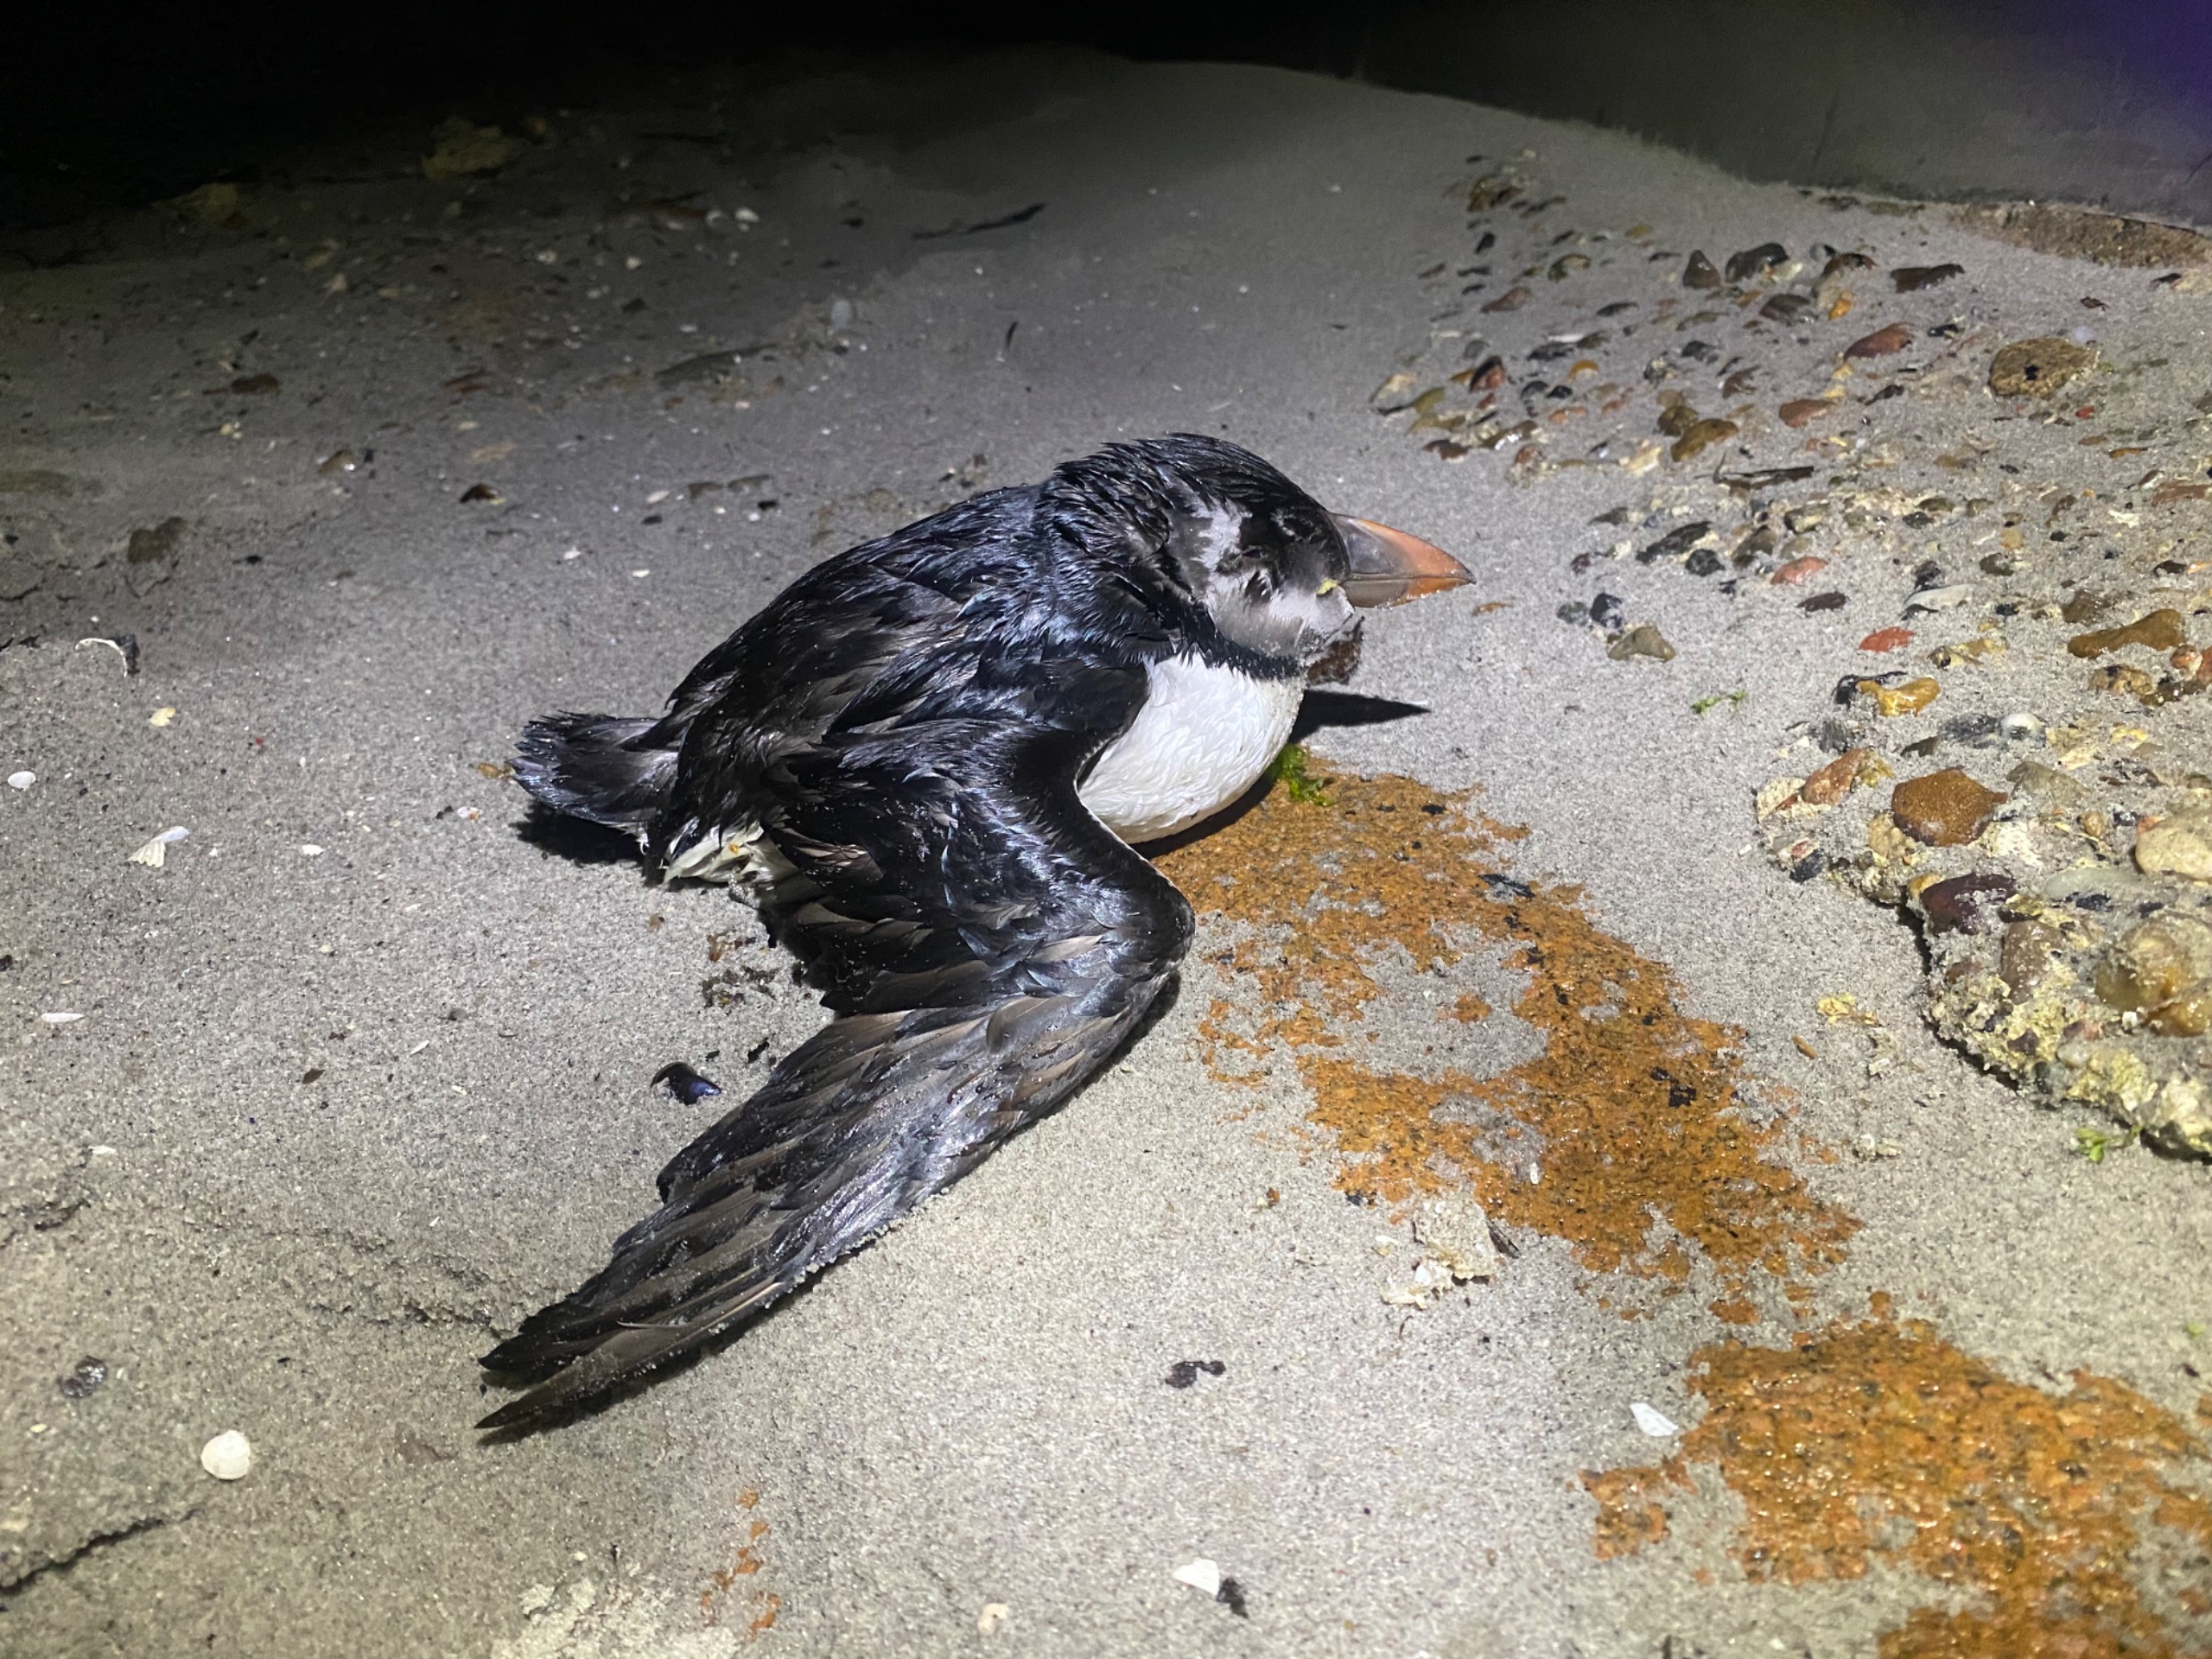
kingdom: Animalia
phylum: Chordata
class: Aves
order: Charadriiformes
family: Alcidae
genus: Fratercula
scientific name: Fratercula arctica
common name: Lunde
